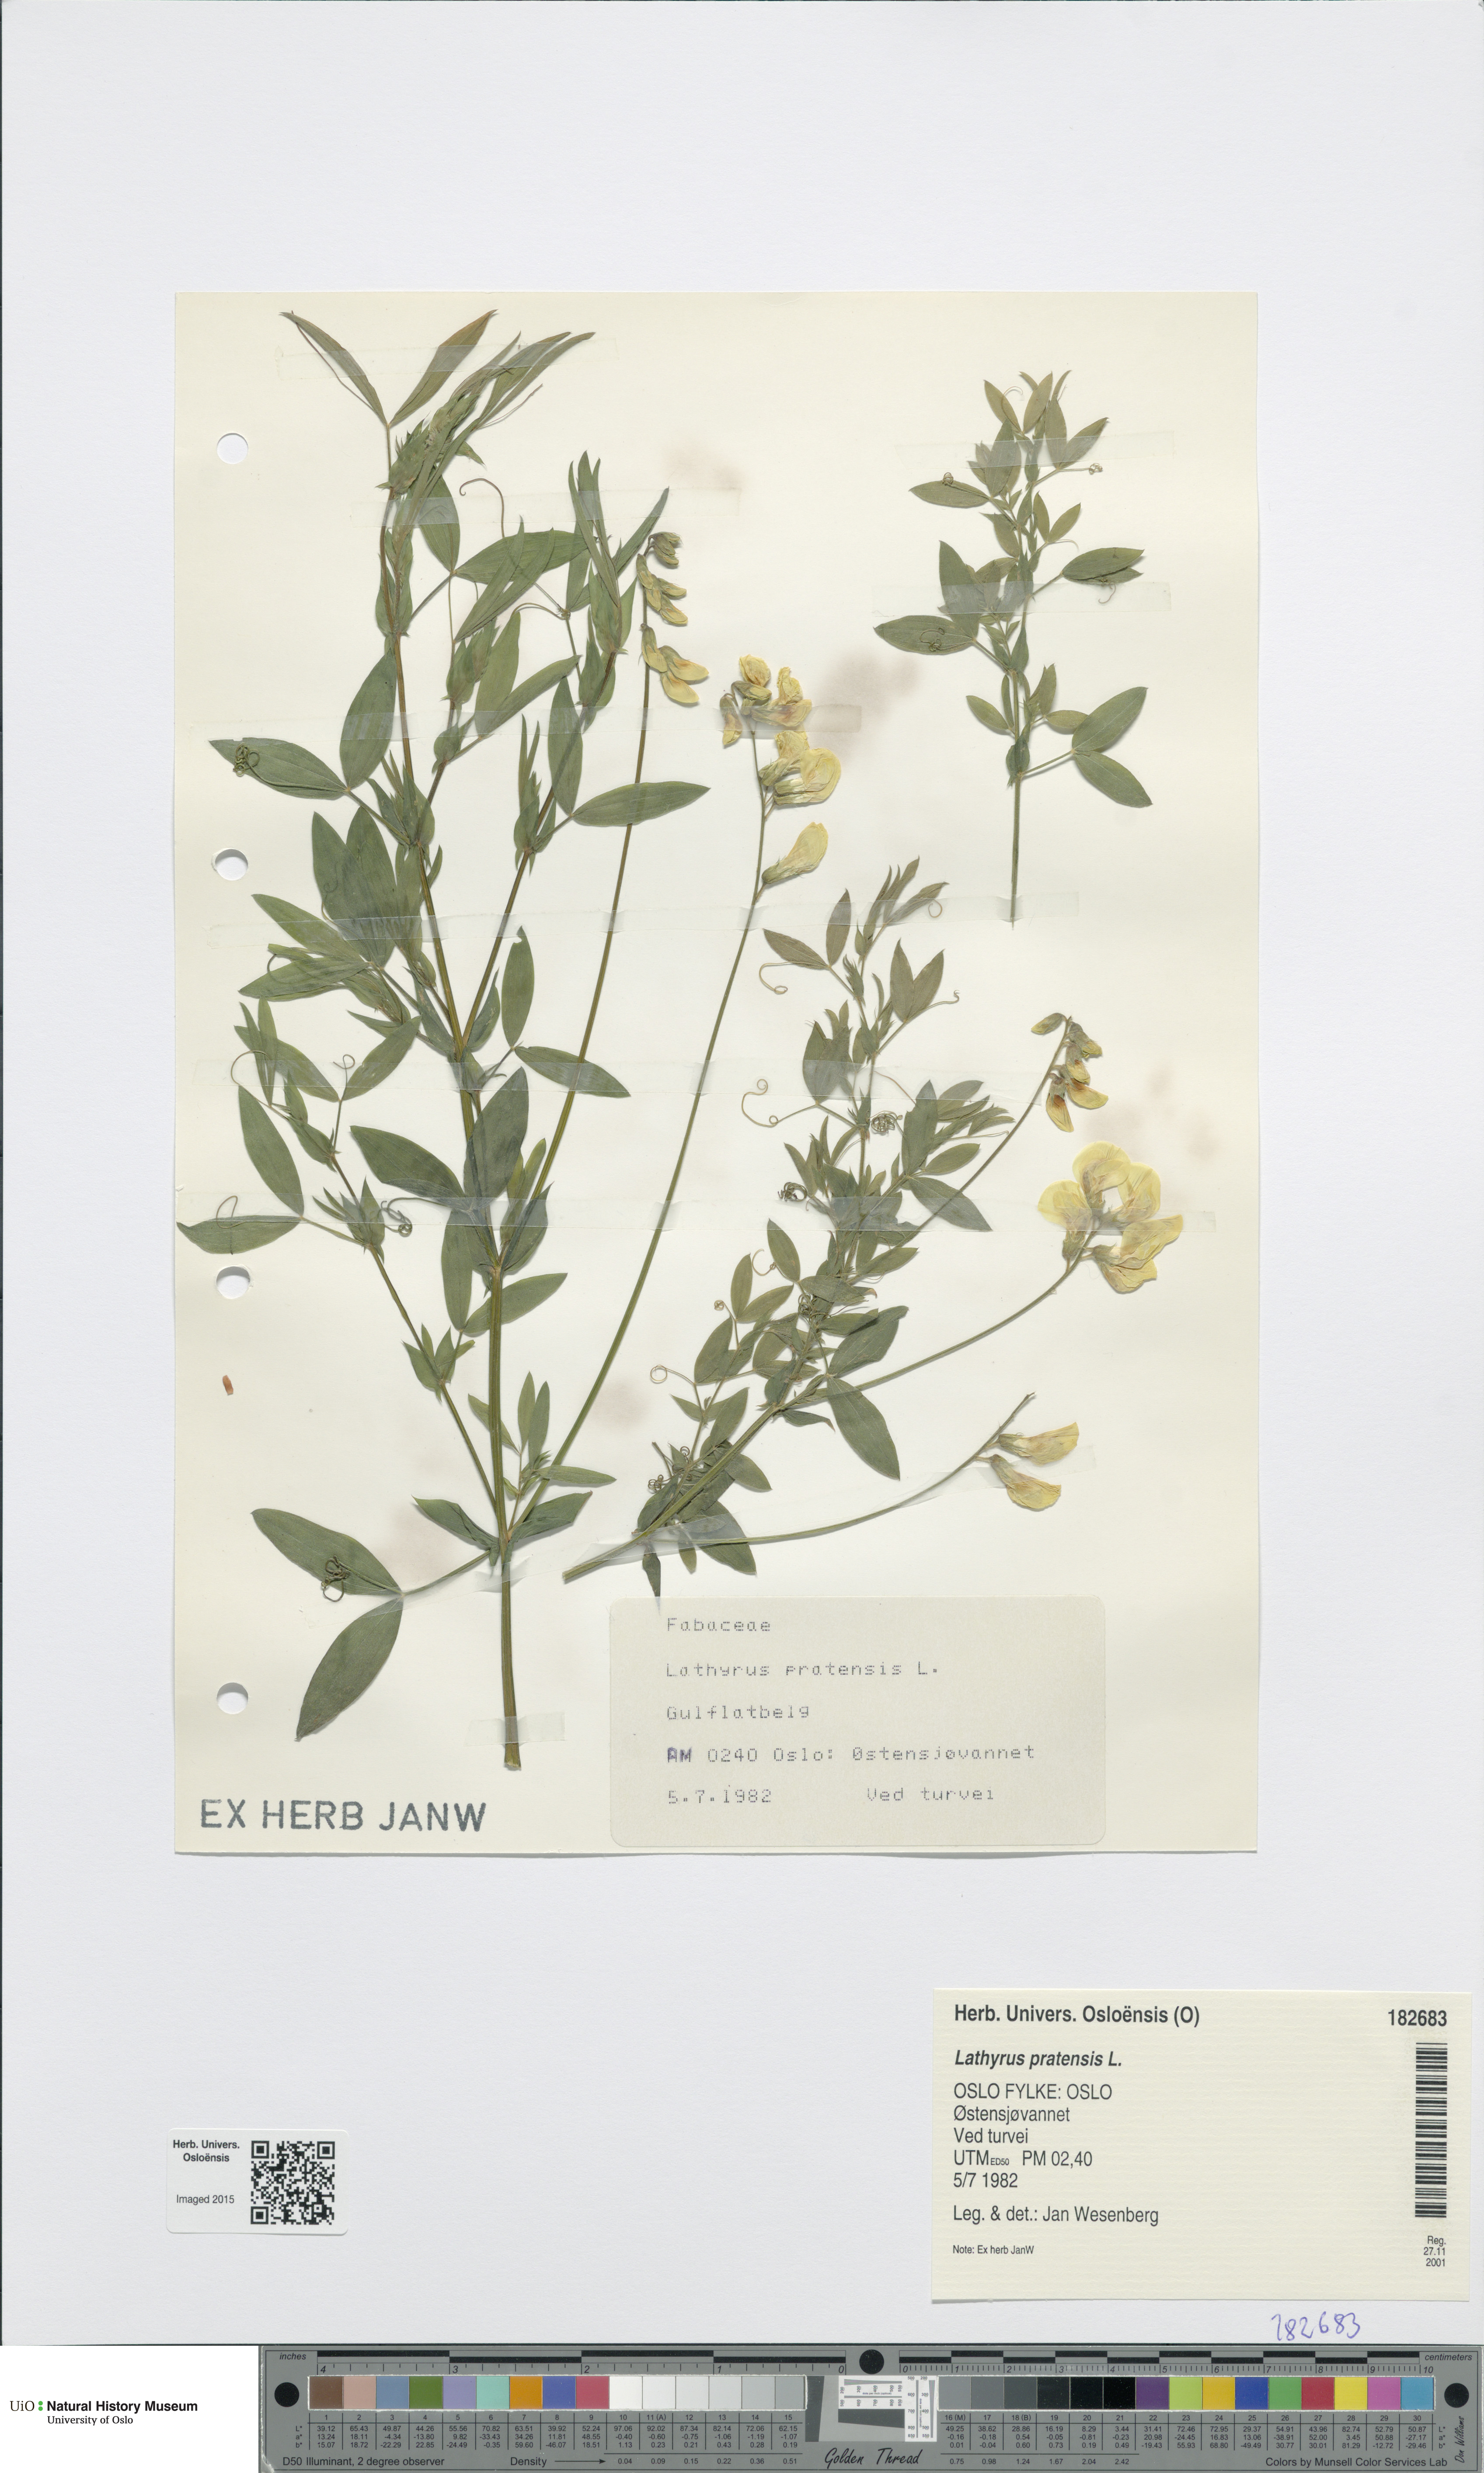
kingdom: Plantae
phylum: Tracheophyta
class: Magnoliopsida
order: Fabales
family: Fabaceae
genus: Lathyrus
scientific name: Lathyrus pratensis
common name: Meadow vetchling
